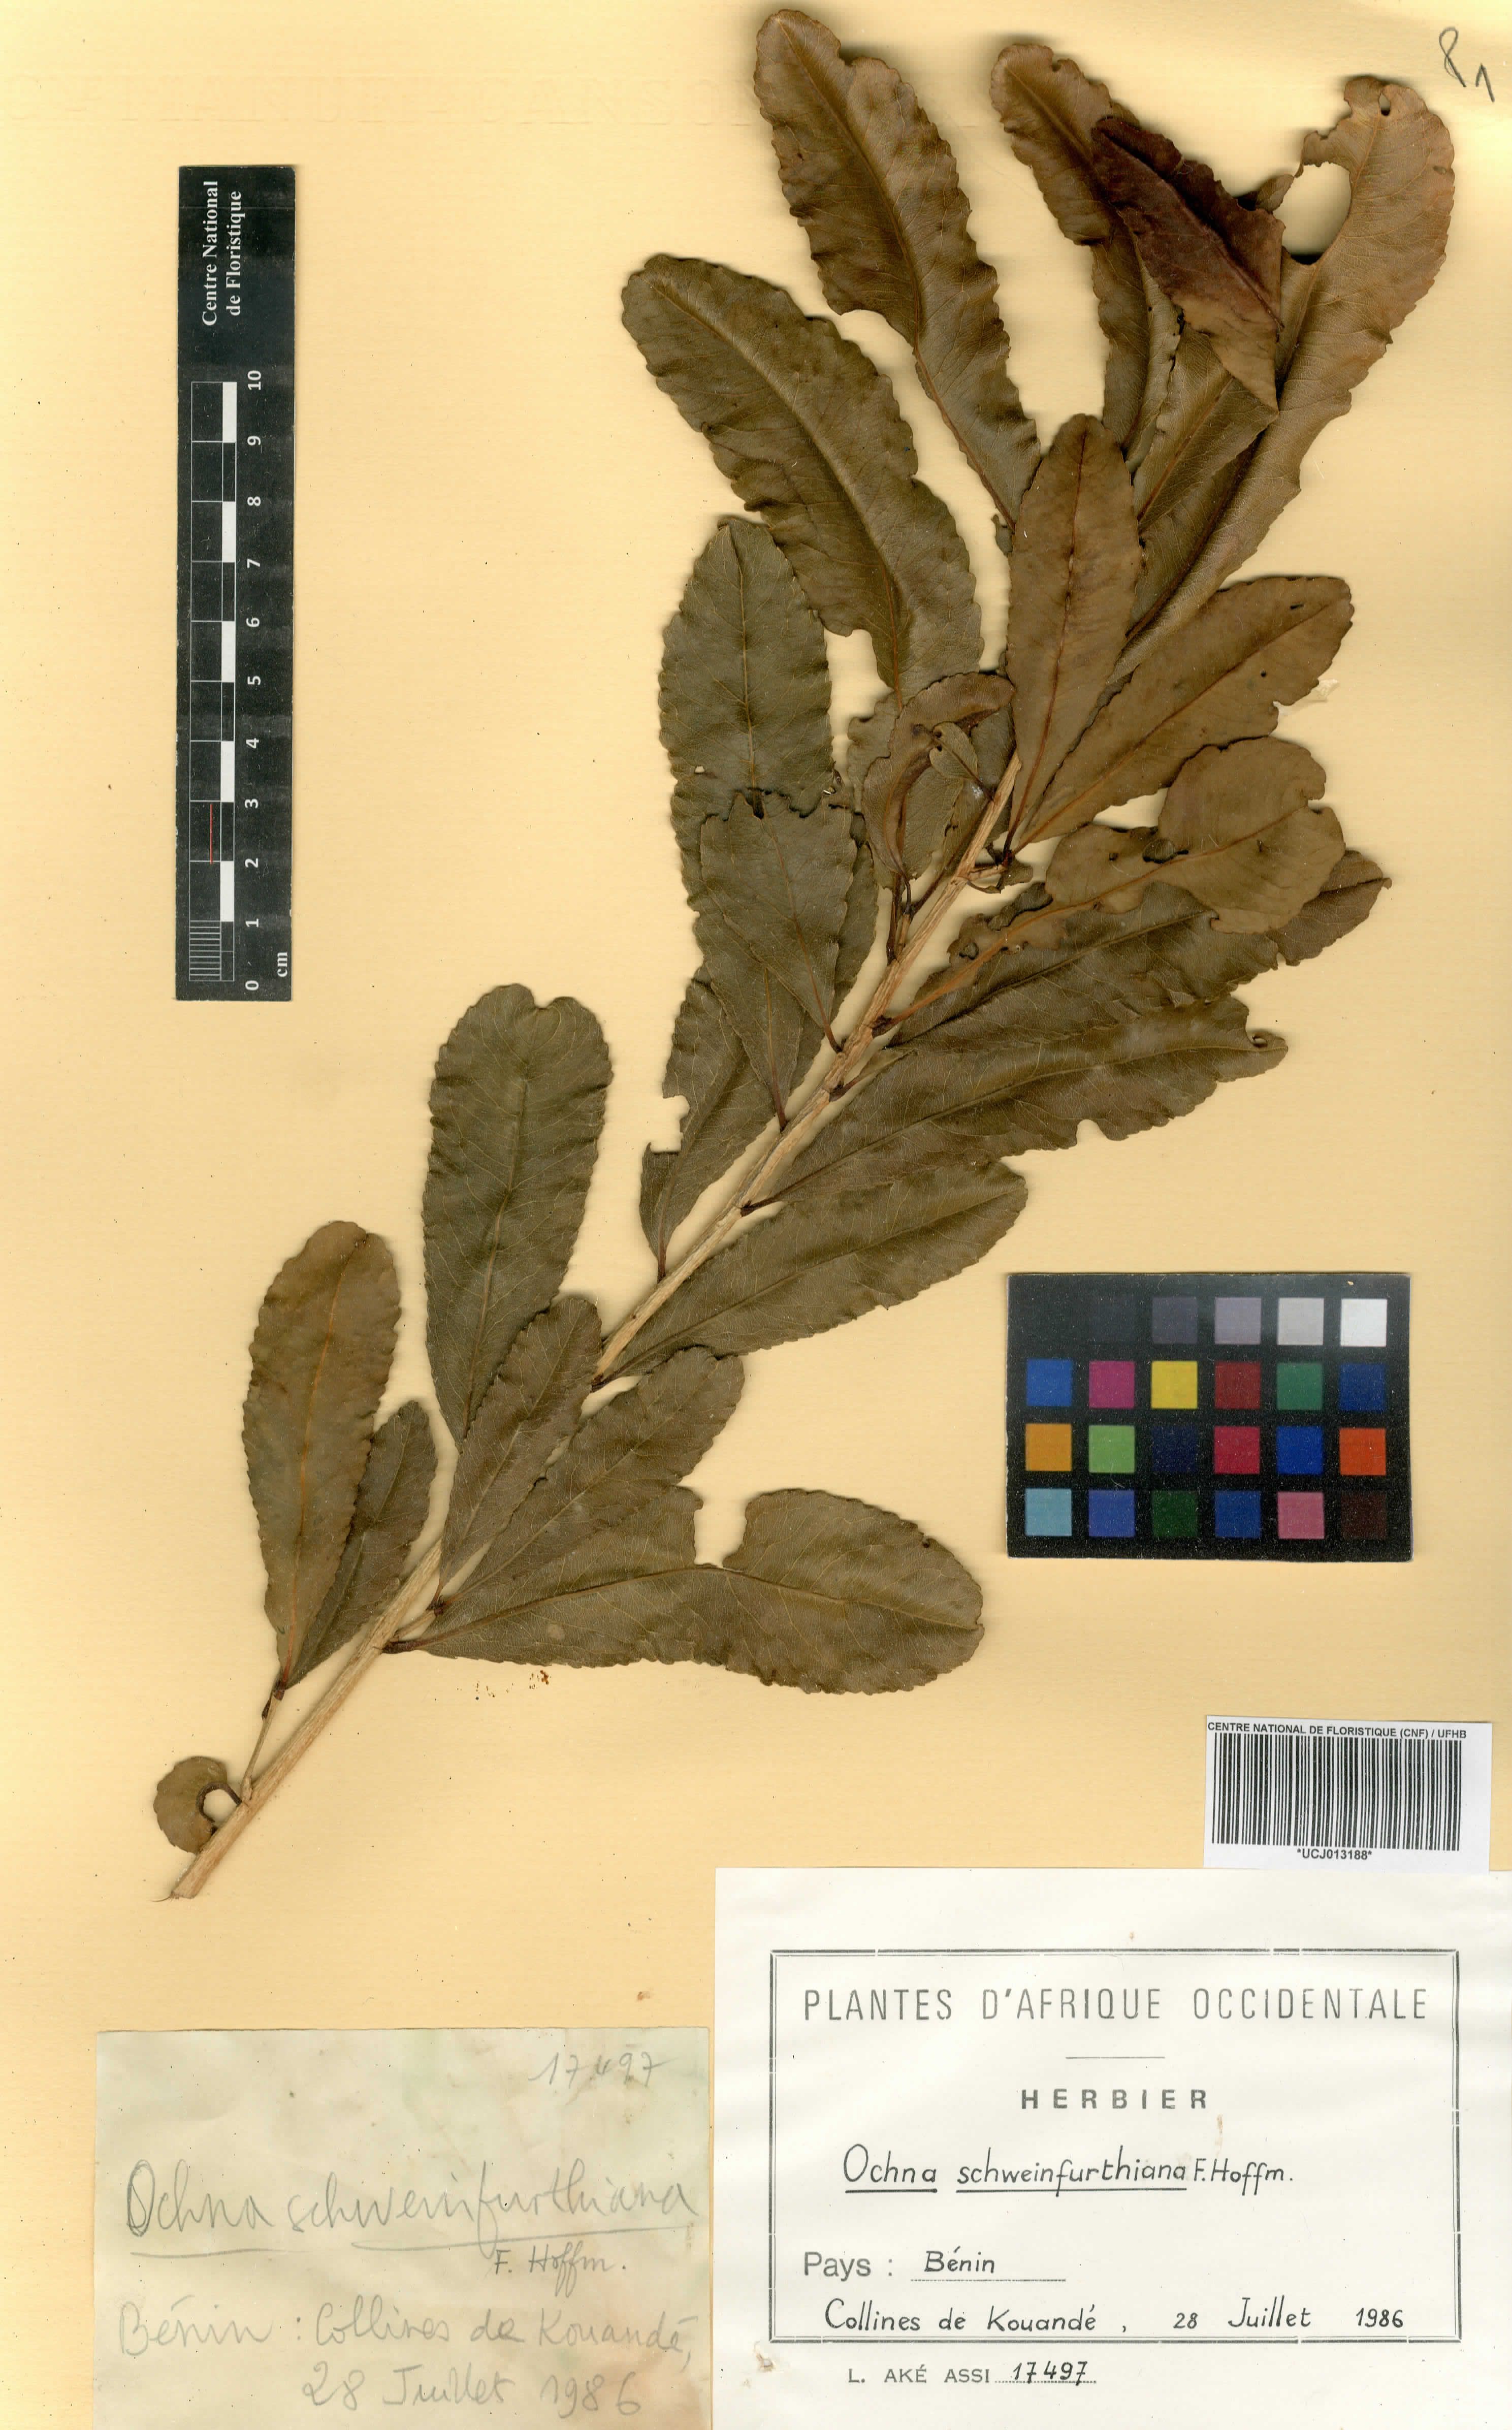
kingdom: Plantae
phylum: Tracheophyta
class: Magnoliopsida
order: Malpighiales
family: Ochnaceae
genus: Ochna
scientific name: Ochna schweinfurthiana
